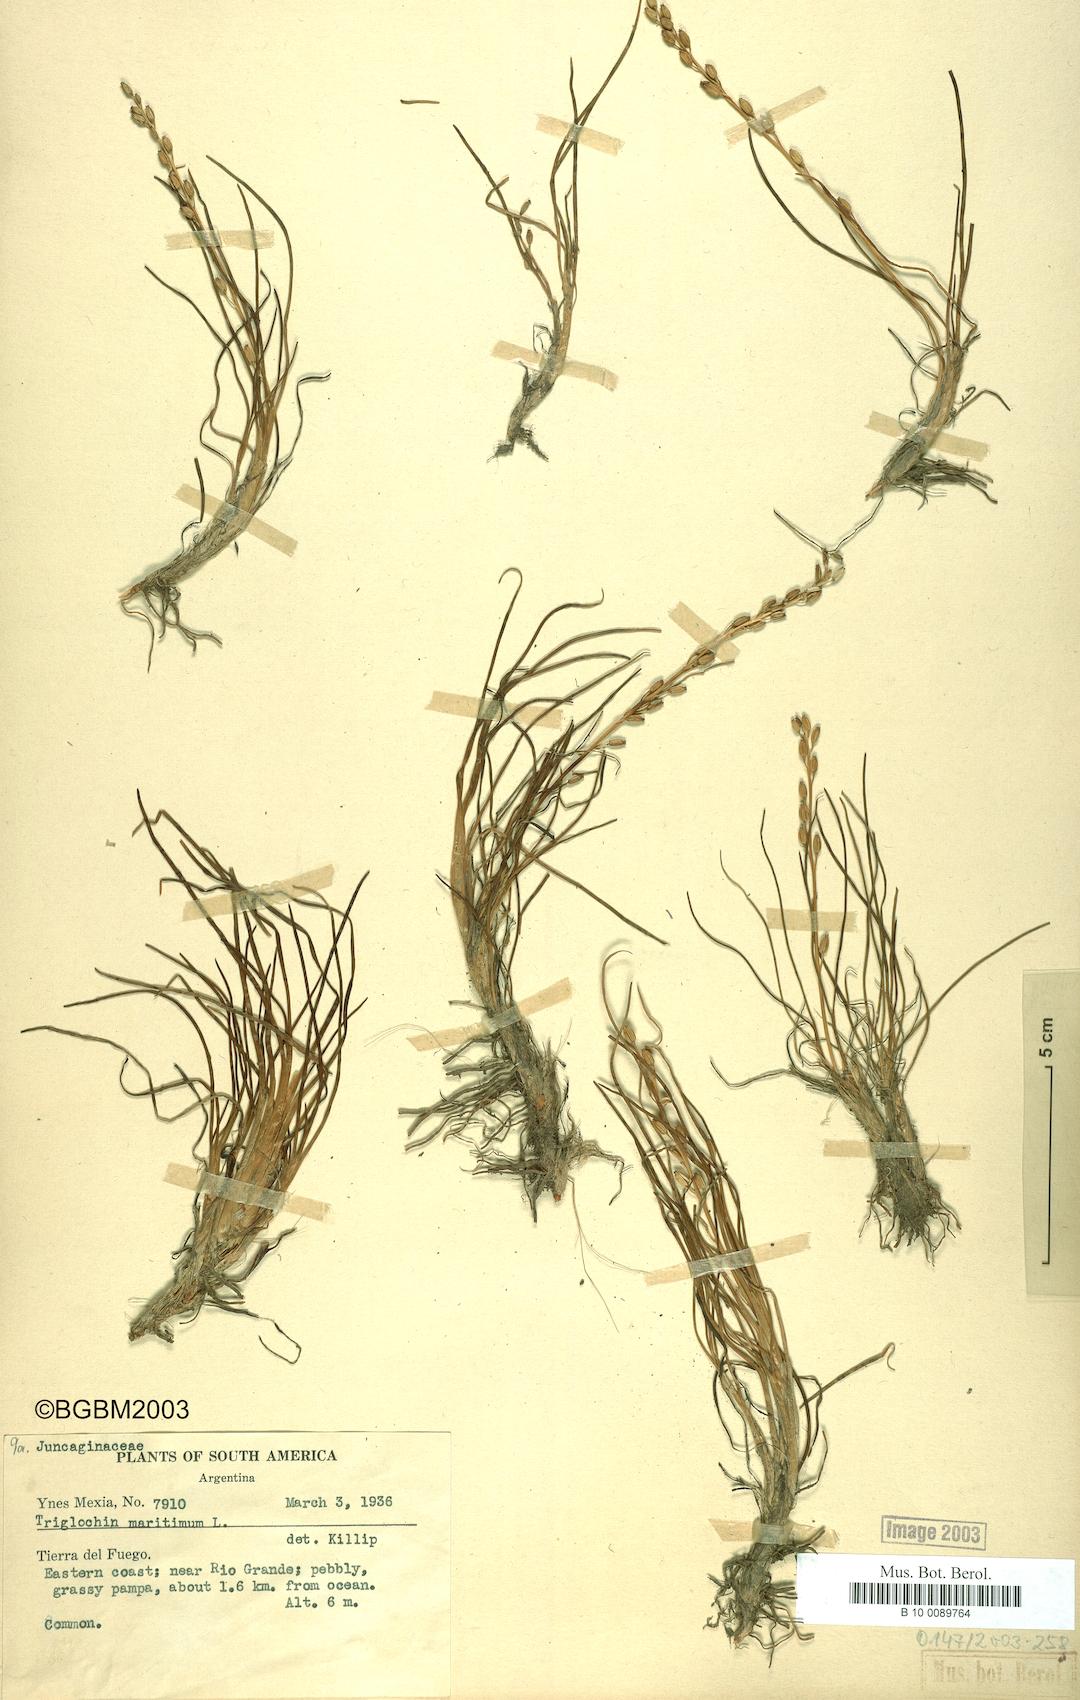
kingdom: Plantae
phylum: Tracheophyta
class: Liliopsida
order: Alismatales
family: Juncaginaceae
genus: Triglochin
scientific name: Triglochin maritima
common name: Sea arrowgrass
